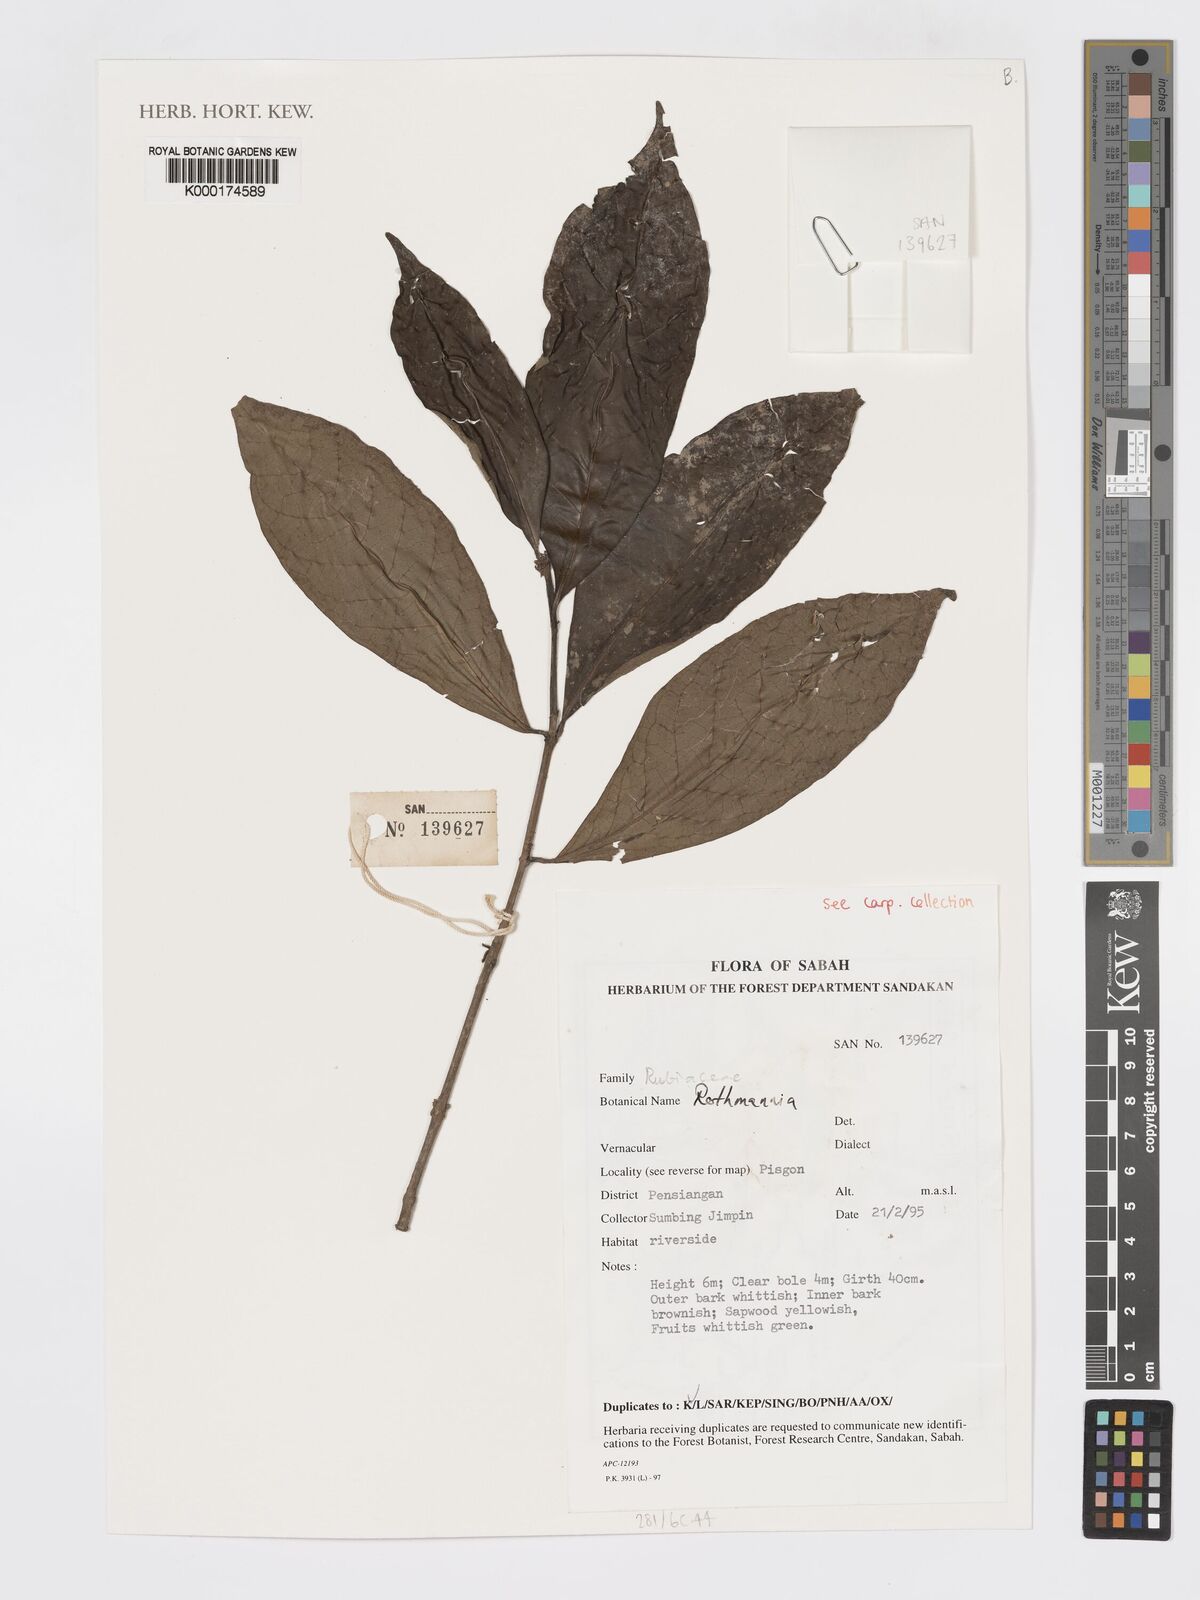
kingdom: Plantae
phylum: Tracheophyta
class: Magnoliopsida
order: Gentianales
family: Rubiaceae
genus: Ridsdalea
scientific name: Ridsdalea
